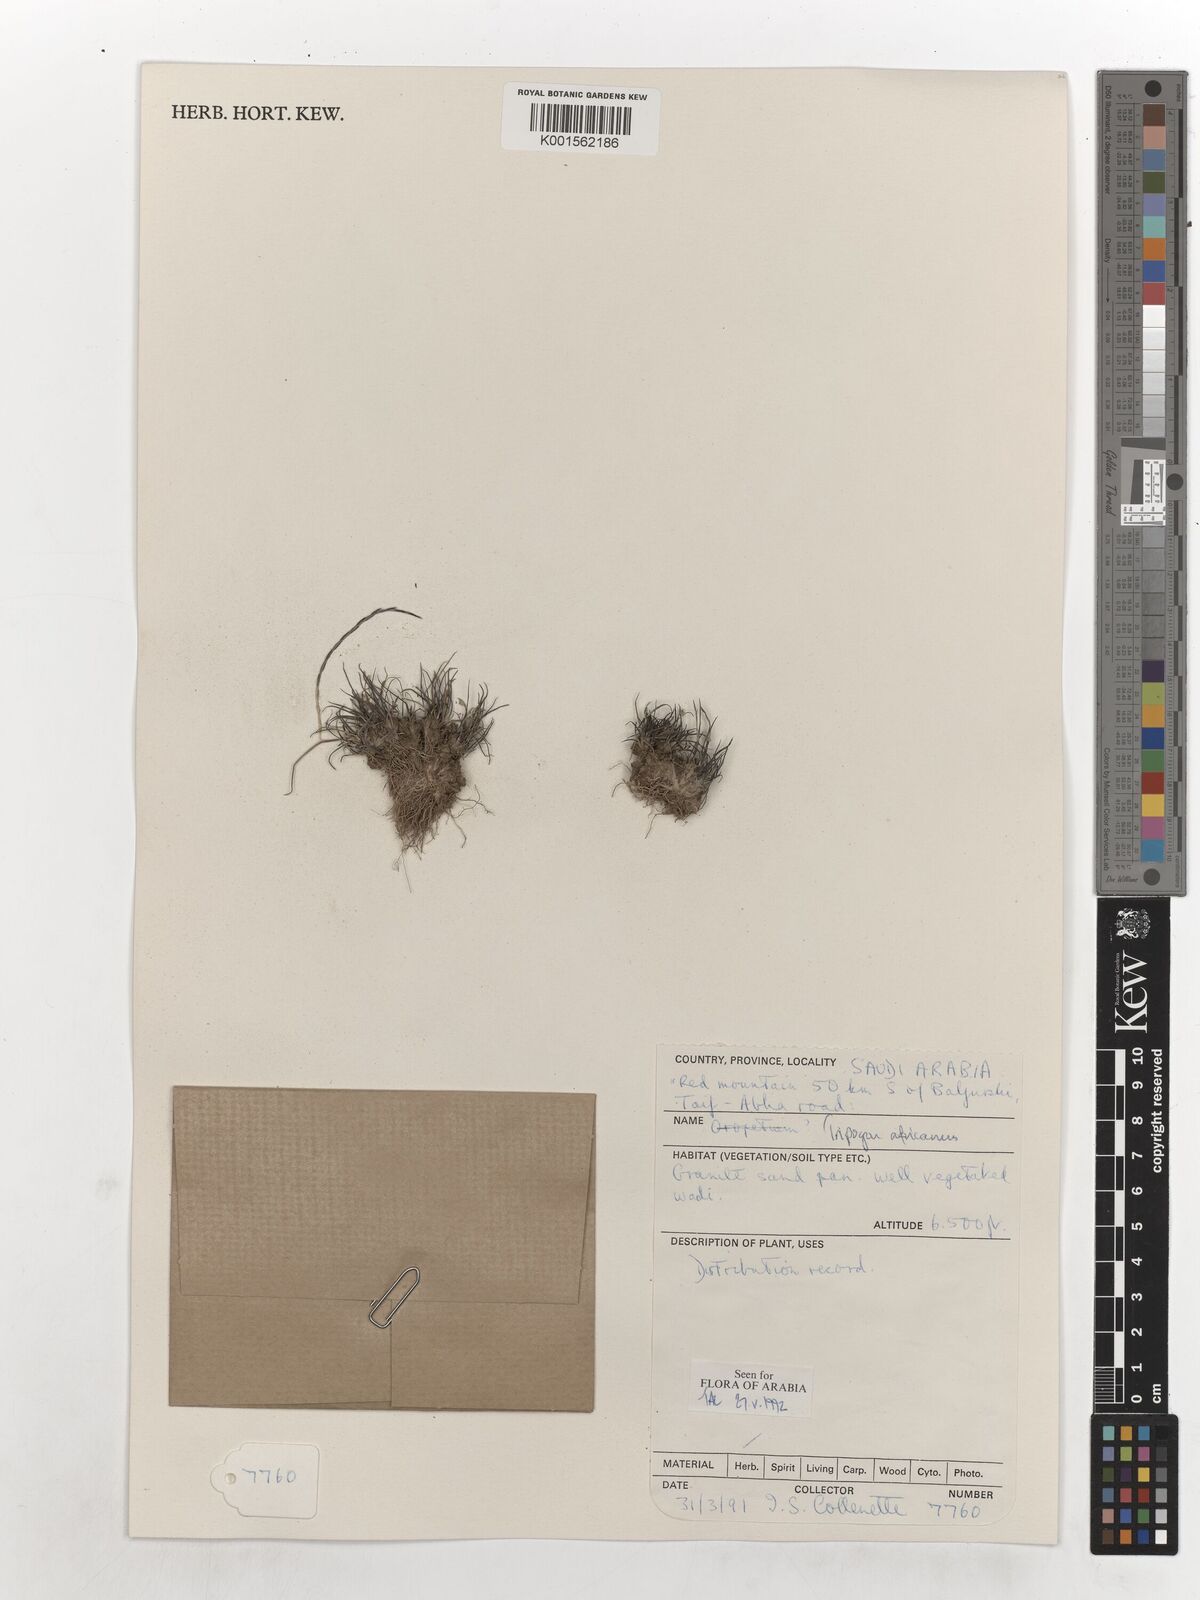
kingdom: Plantae
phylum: Tracheophyta
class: Liliopsida
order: Poales
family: Poaceae
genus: Tripogon
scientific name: Tripogon africanus
